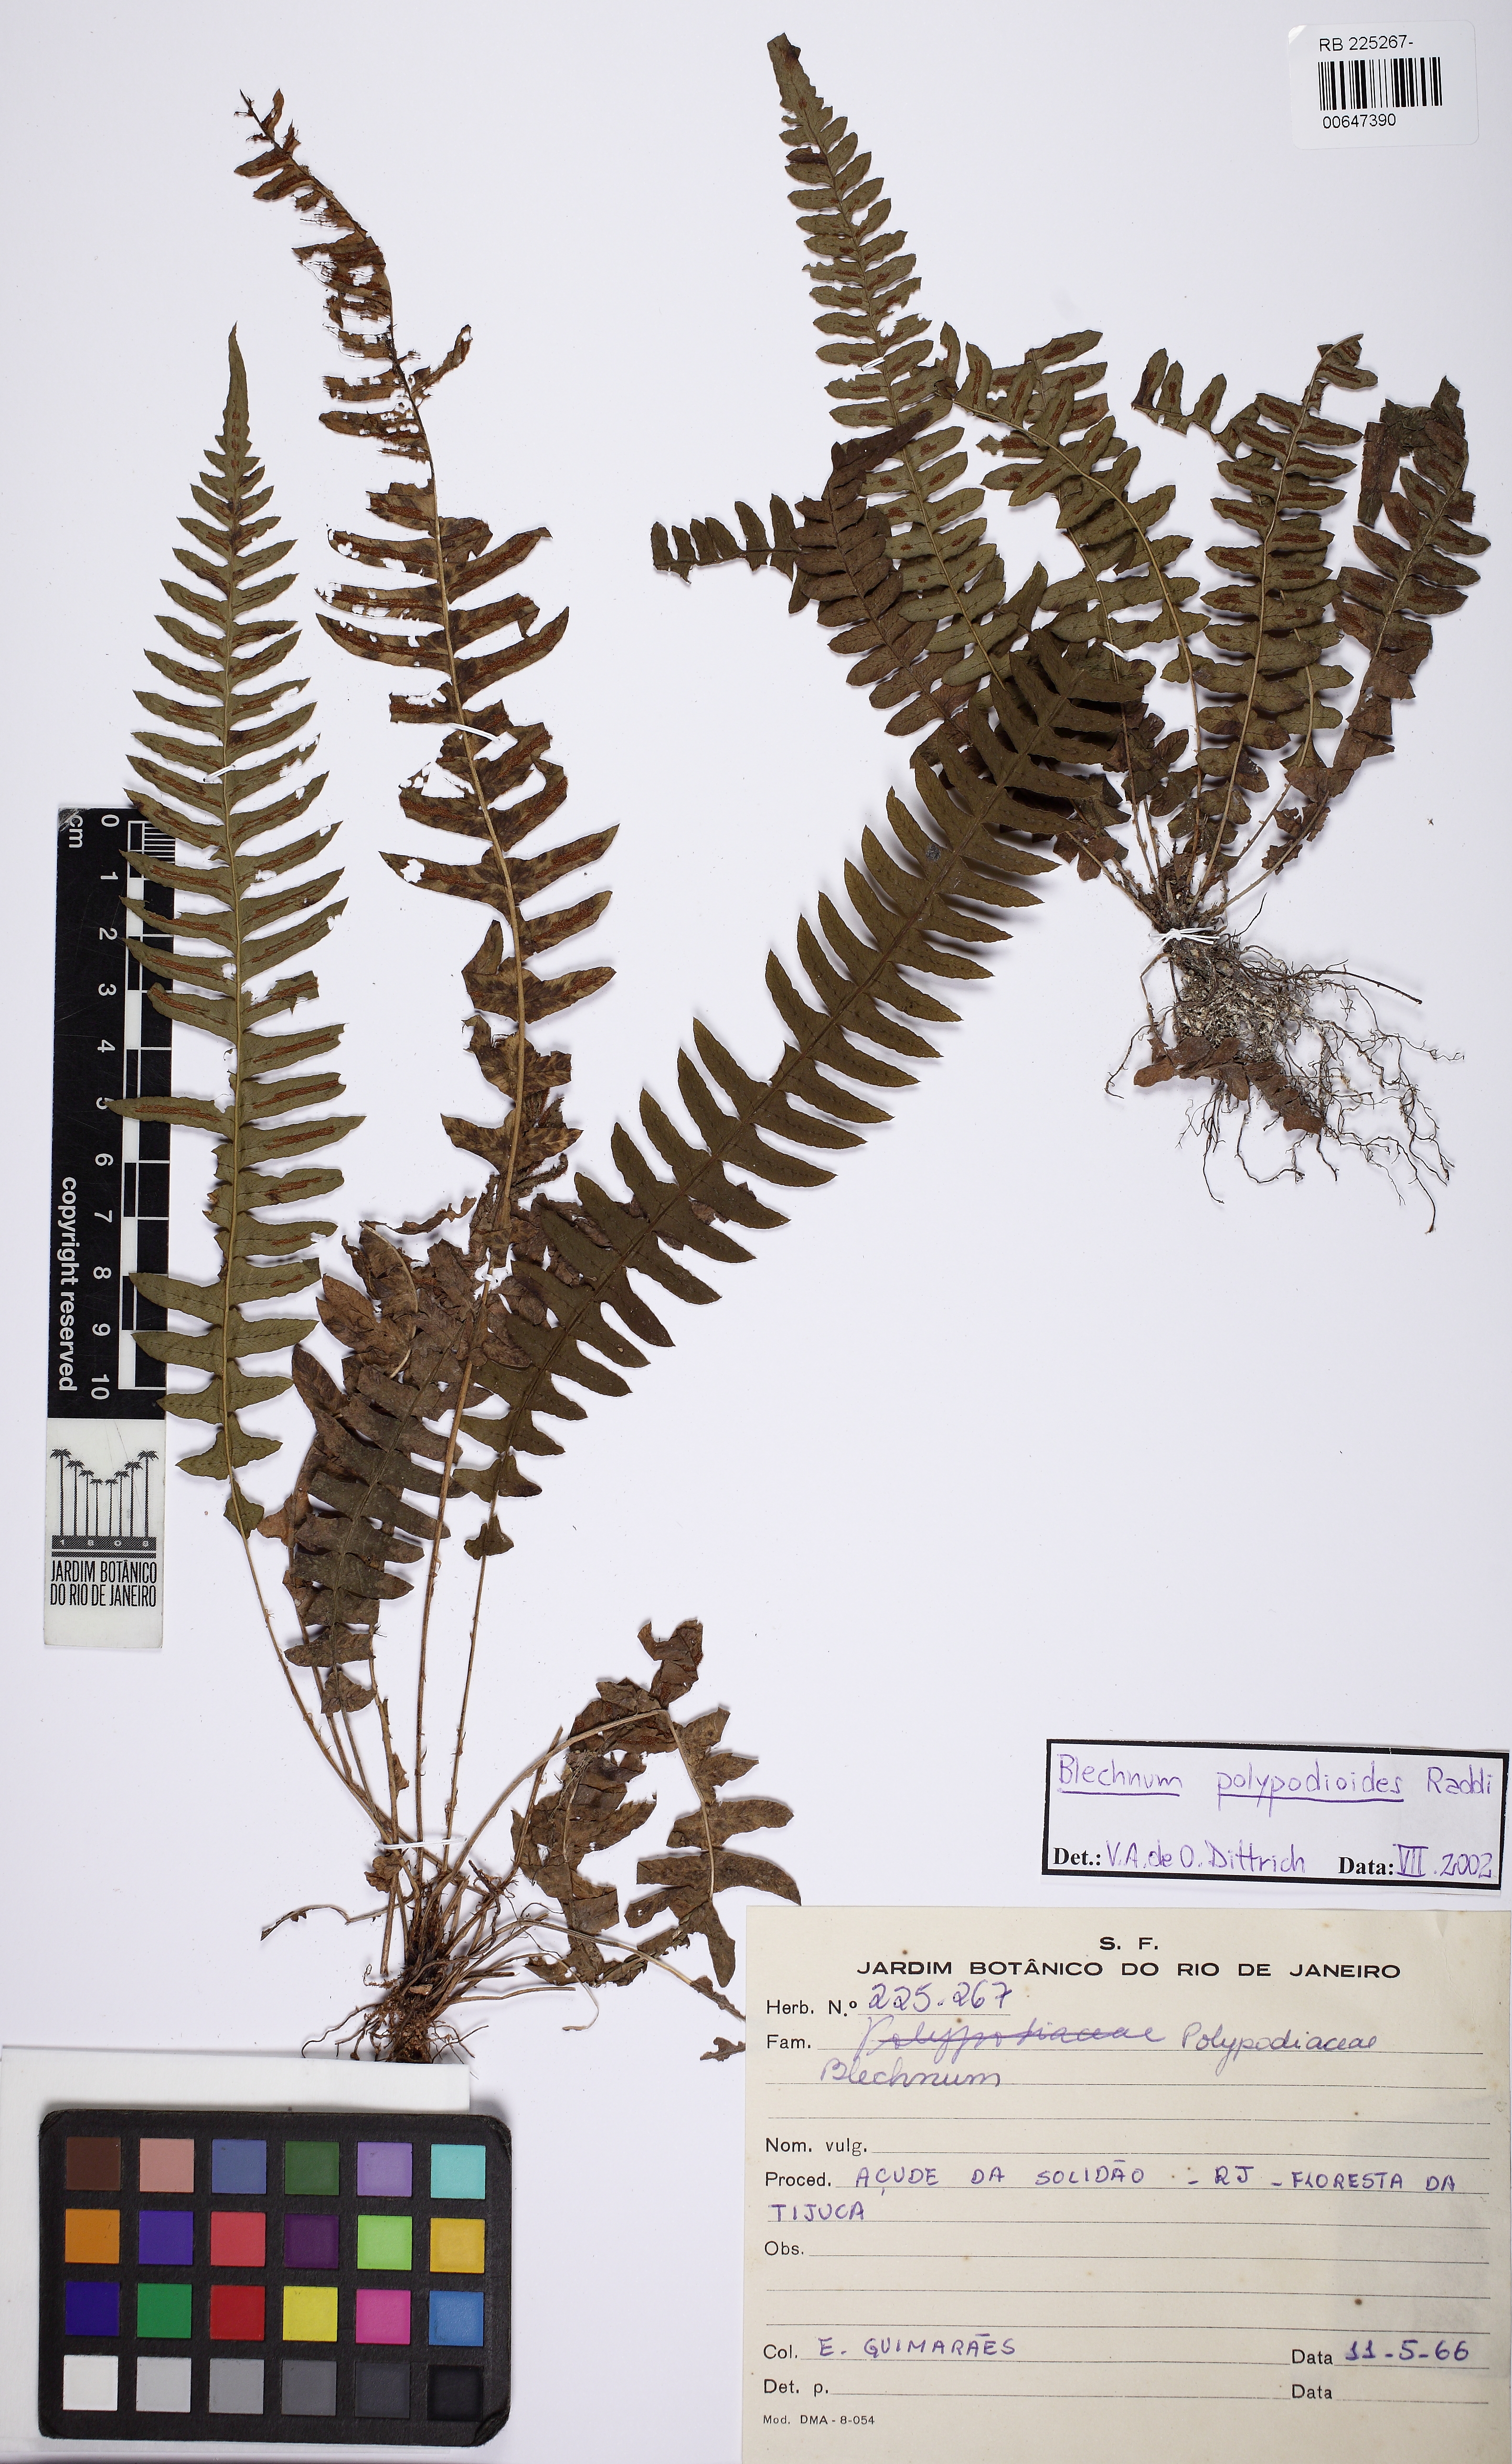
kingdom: Plantae
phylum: Tracheophyta
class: Polypodiopsida
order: Polypodiales
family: Blechnaceae
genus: Blechnum
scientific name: Blechnum polypodioides
